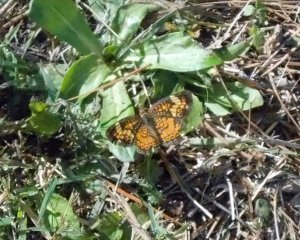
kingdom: Animalia
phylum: Arthropoda
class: Insecta
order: Lepidoptera
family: Nymphalidae
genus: Phyciodes
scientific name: Phyciodes tharos
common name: Pearl Crescent
